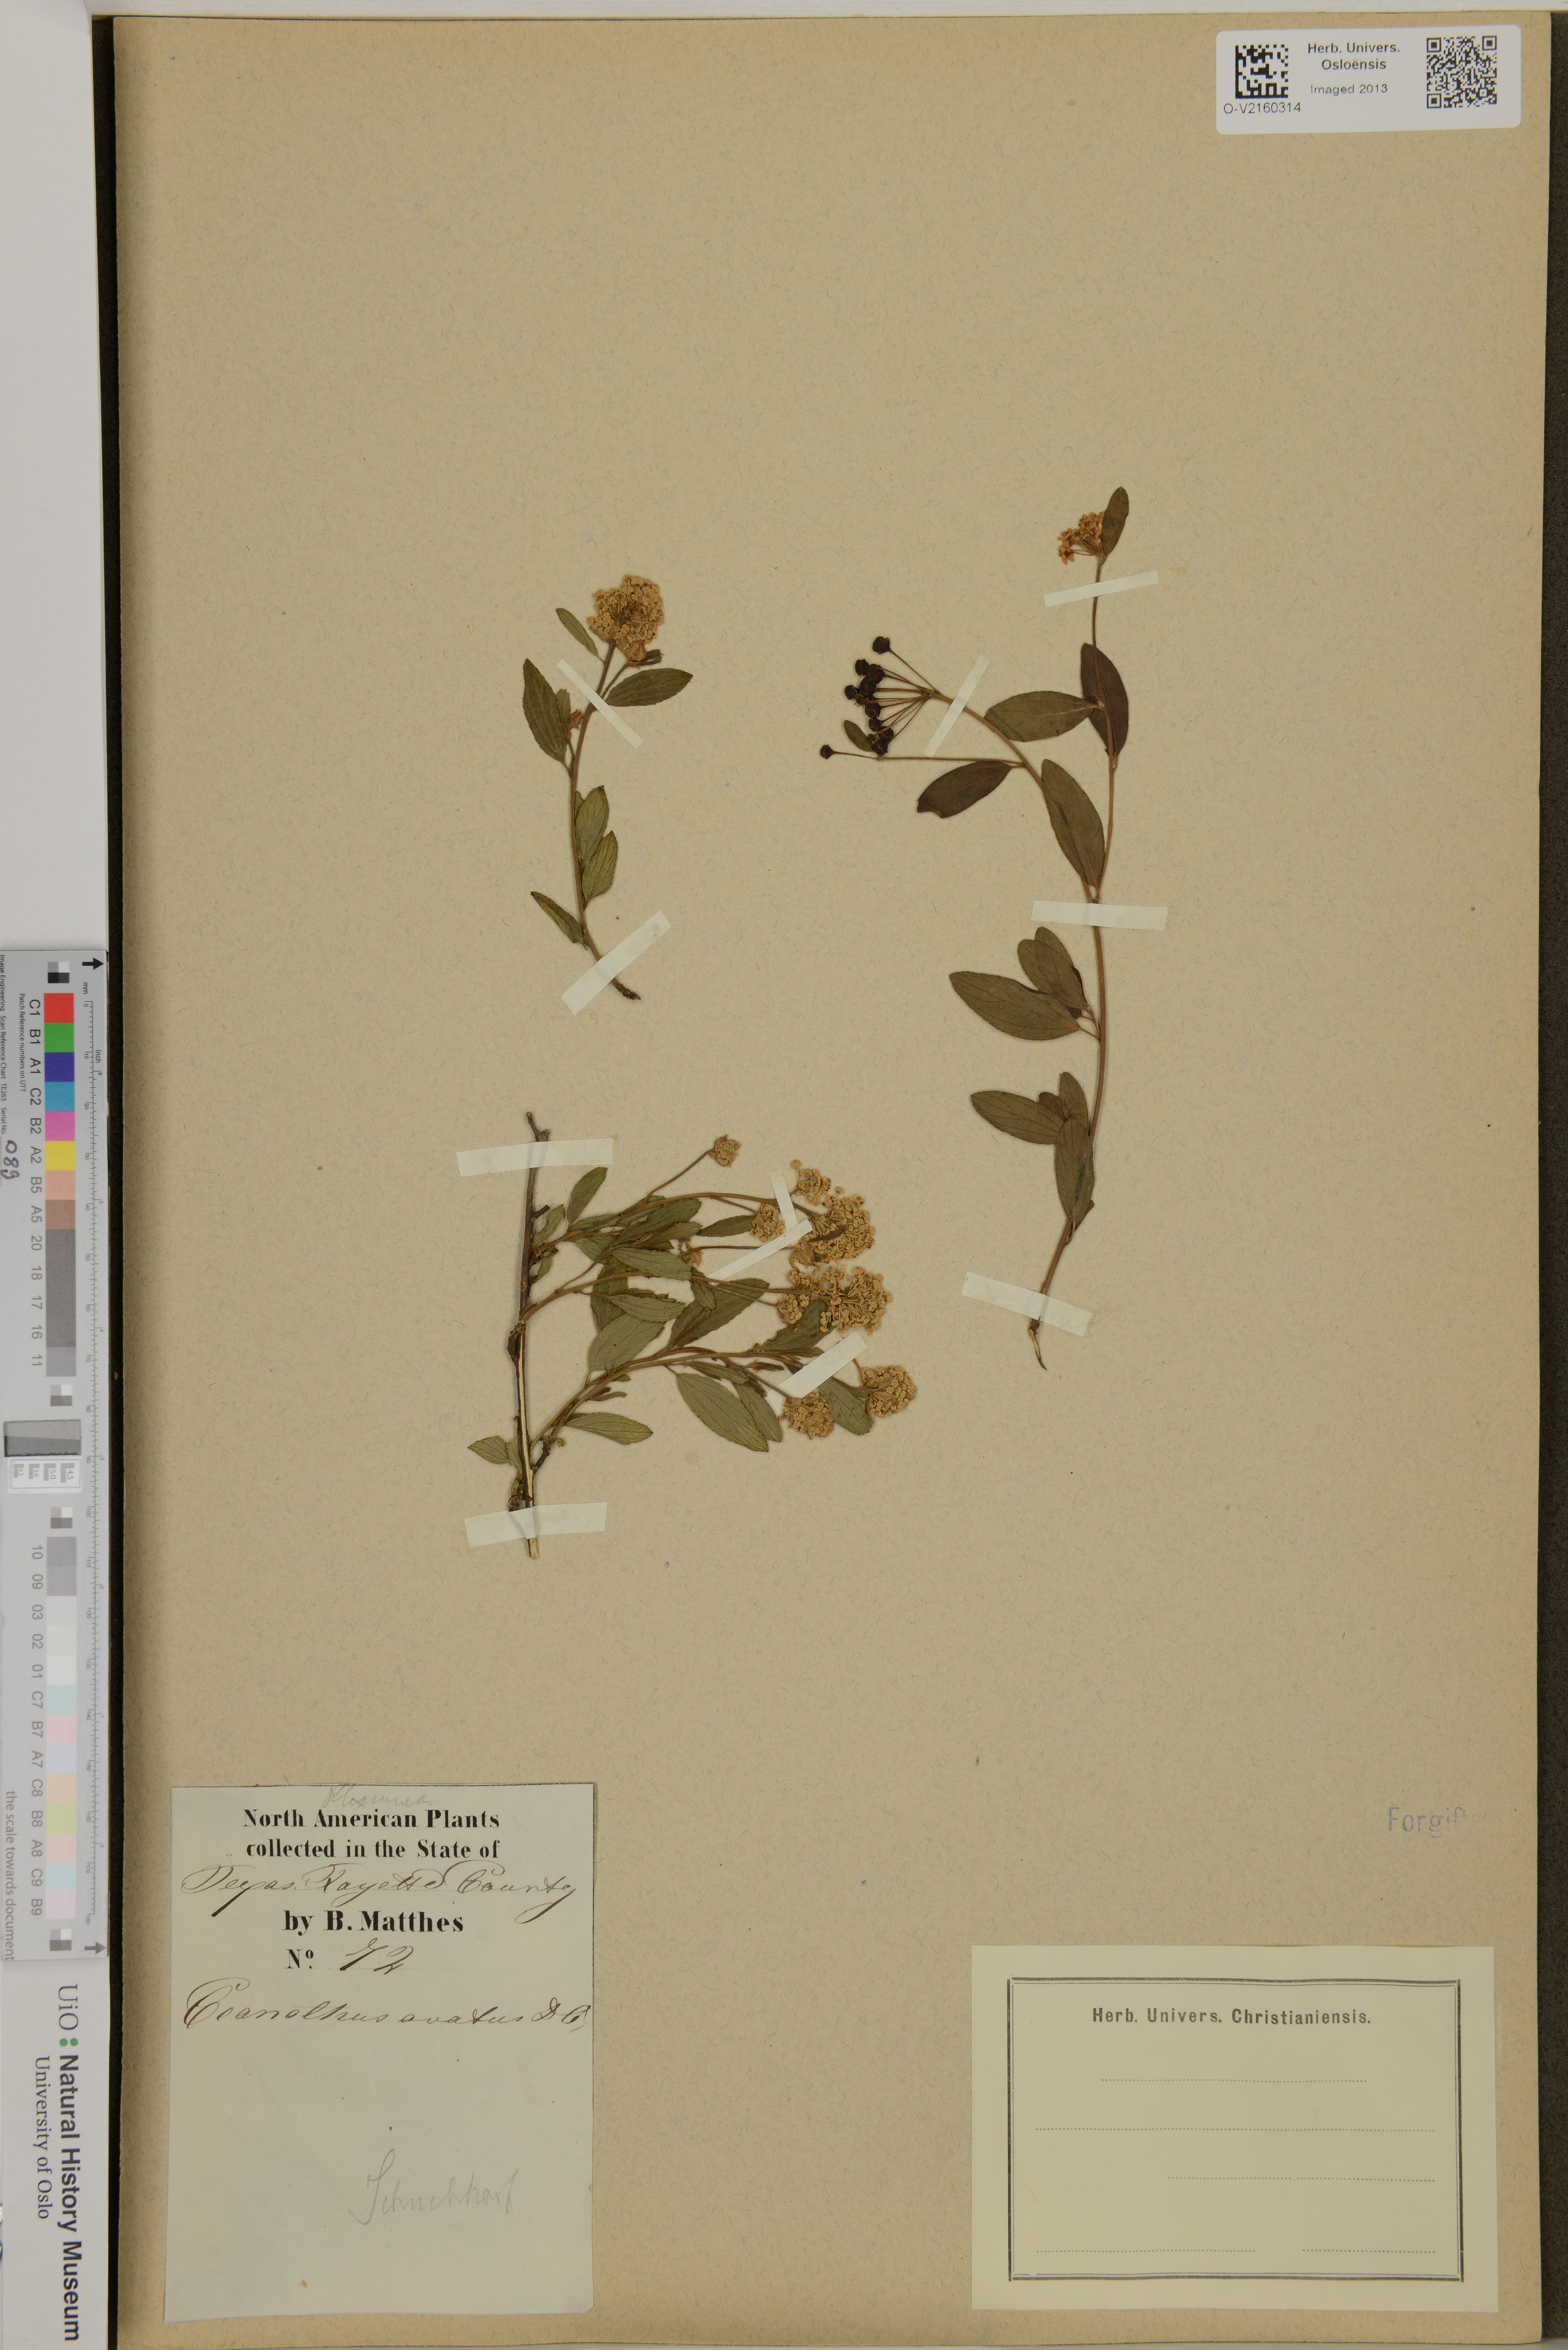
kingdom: Plantae
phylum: Tracheophyta
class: Magnoliopsida
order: Rosales
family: Rhamnaceae
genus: Ceanothus
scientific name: Ceanothus herbaceus
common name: Inland ceanothus
